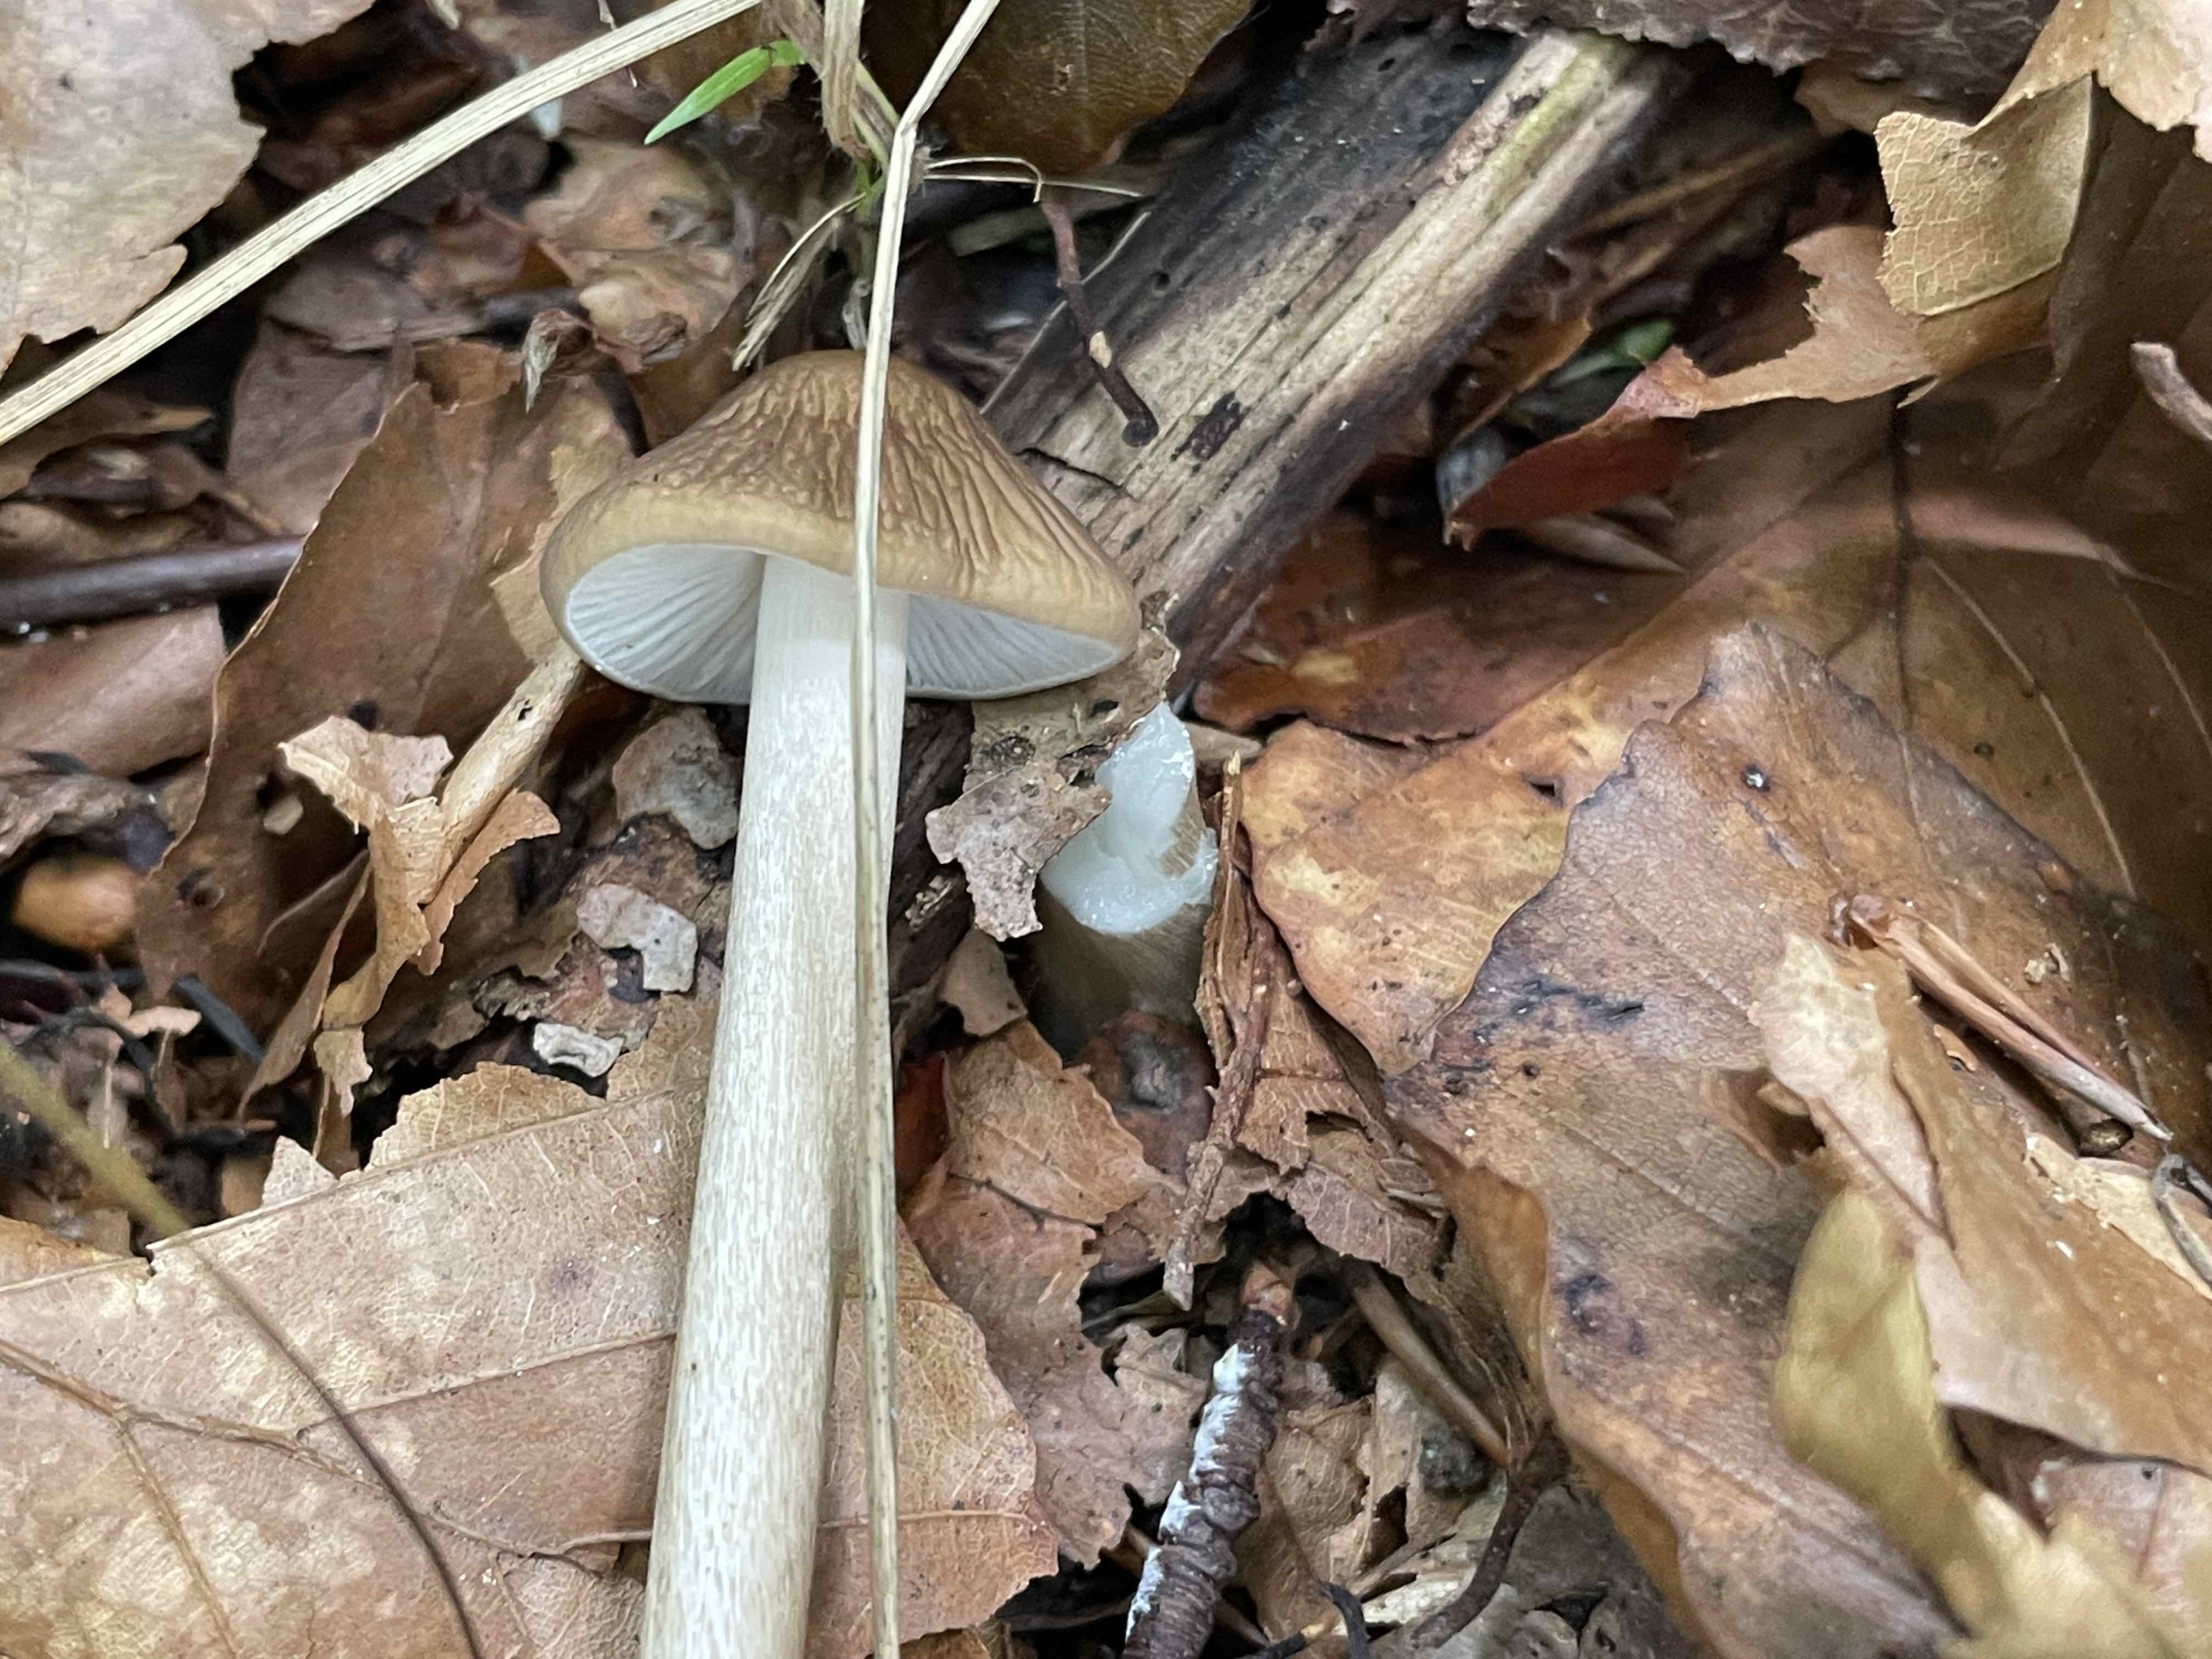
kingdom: Fungi
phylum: Basidiomycota
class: Agaricomycetes
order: Agaricales
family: Physalacriaceae
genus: Hymenopellis
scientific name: Hymenopellis radicata
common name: almindelig pælerodshat
